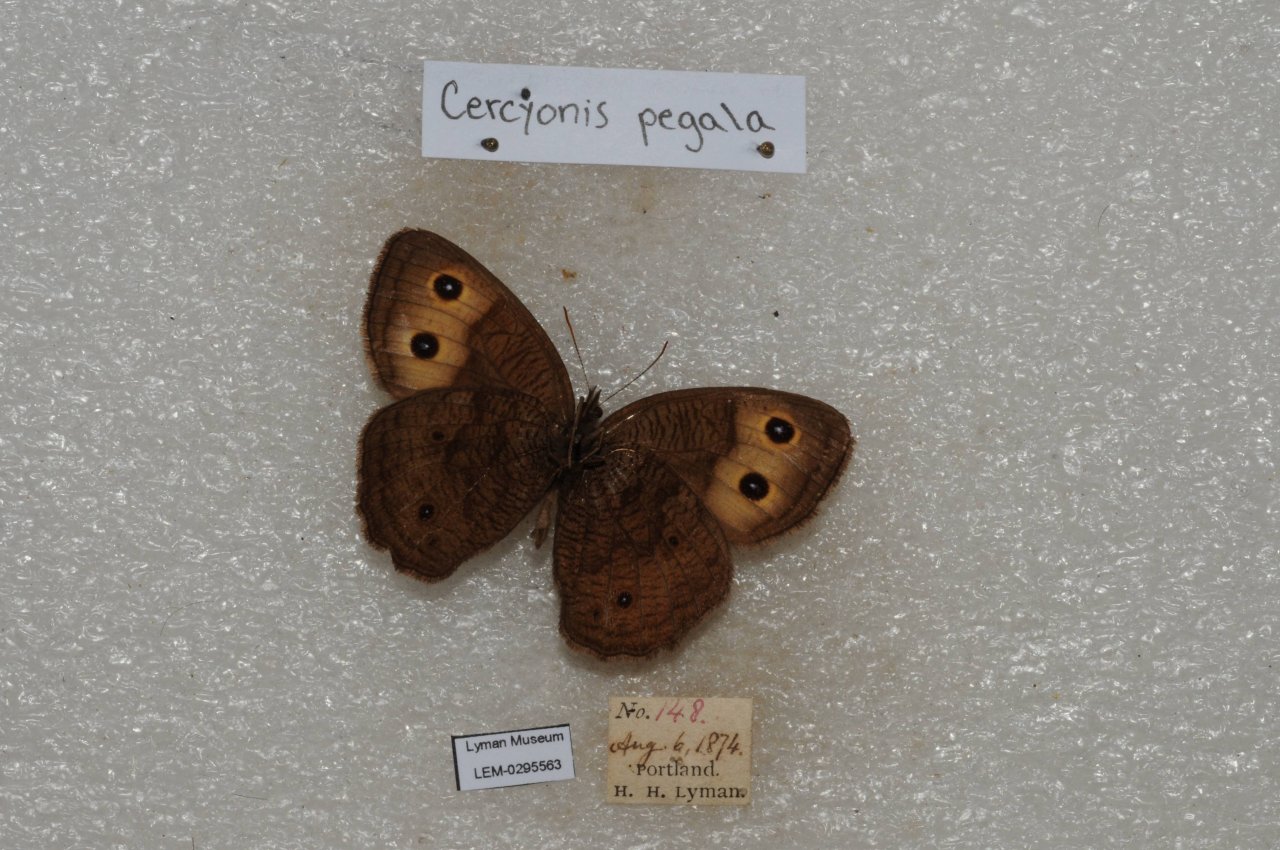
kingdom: Animalia
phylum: Arthropoda
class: Insecta
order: Lepidoptera
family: Nymphalidae
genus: Cercyonis
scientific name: Cercyonis pegala
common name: Common Wood-Nymph
